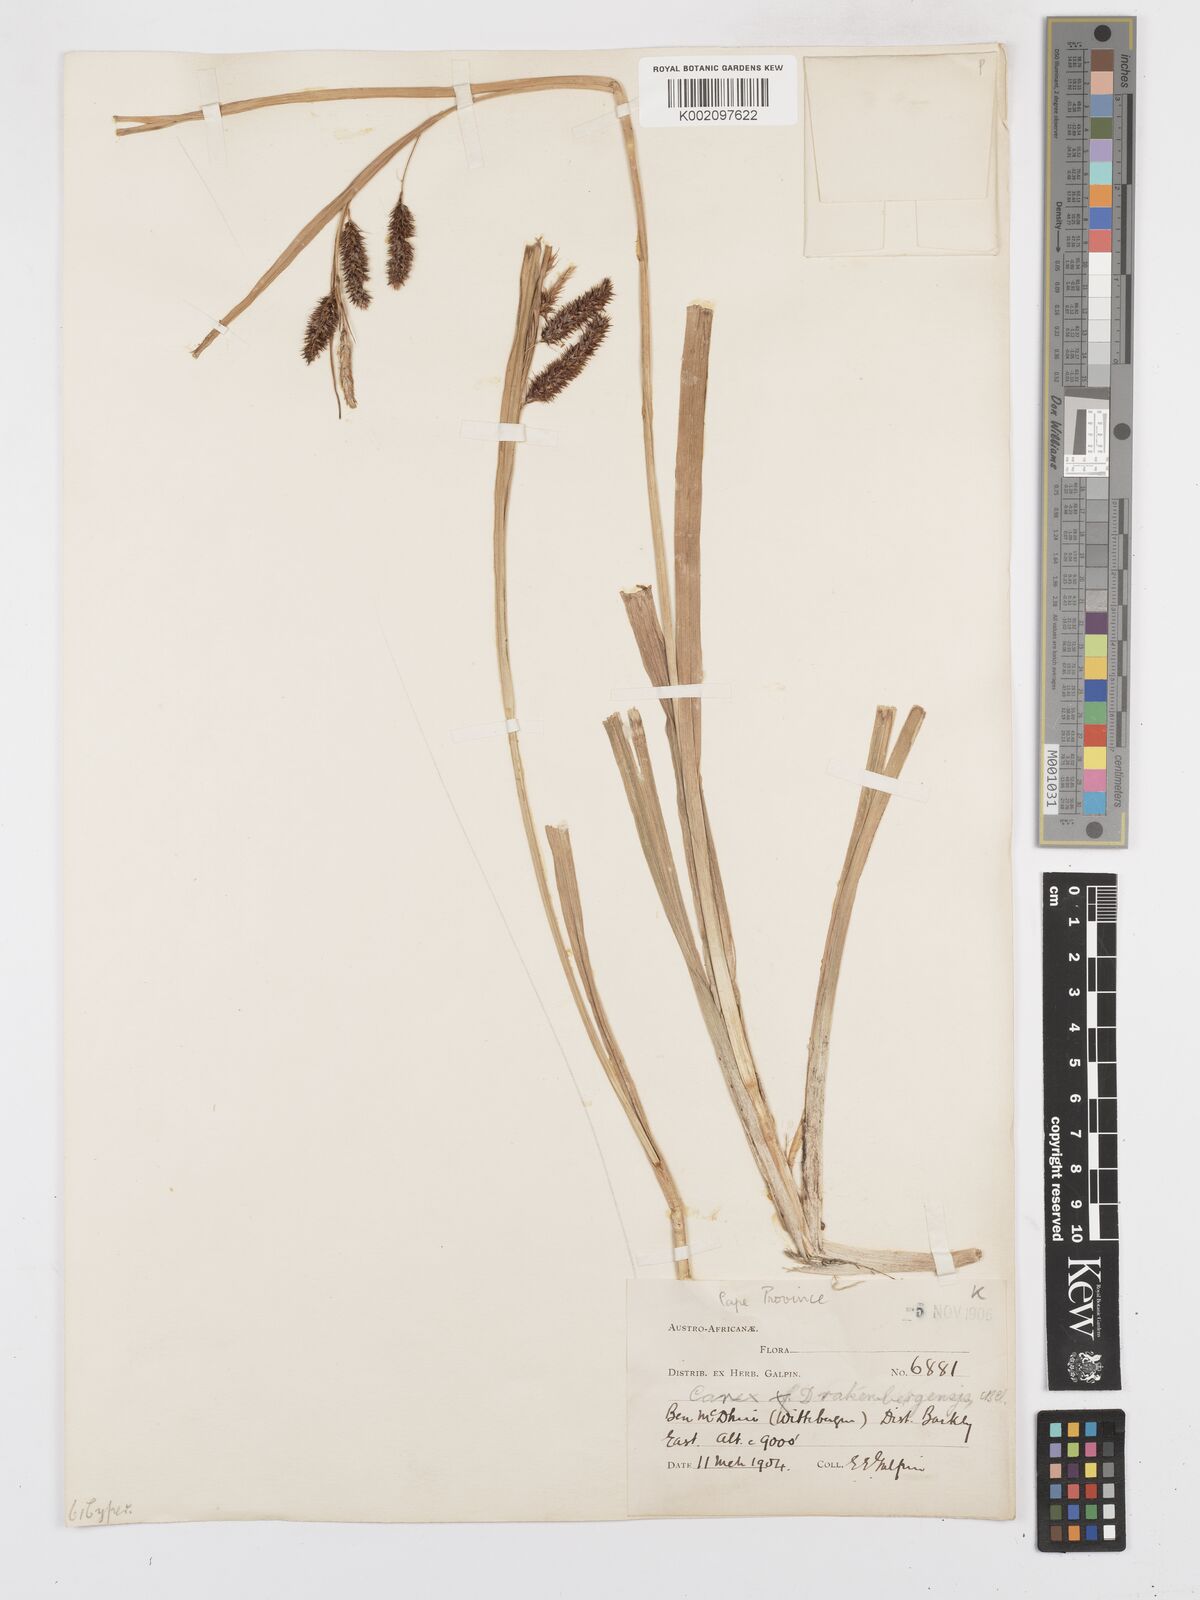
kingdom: Plantae
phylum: Tracheophyta
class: Liliopsida
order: Poales
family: Cyperaceae
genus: Carex
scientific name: Carex cognata
